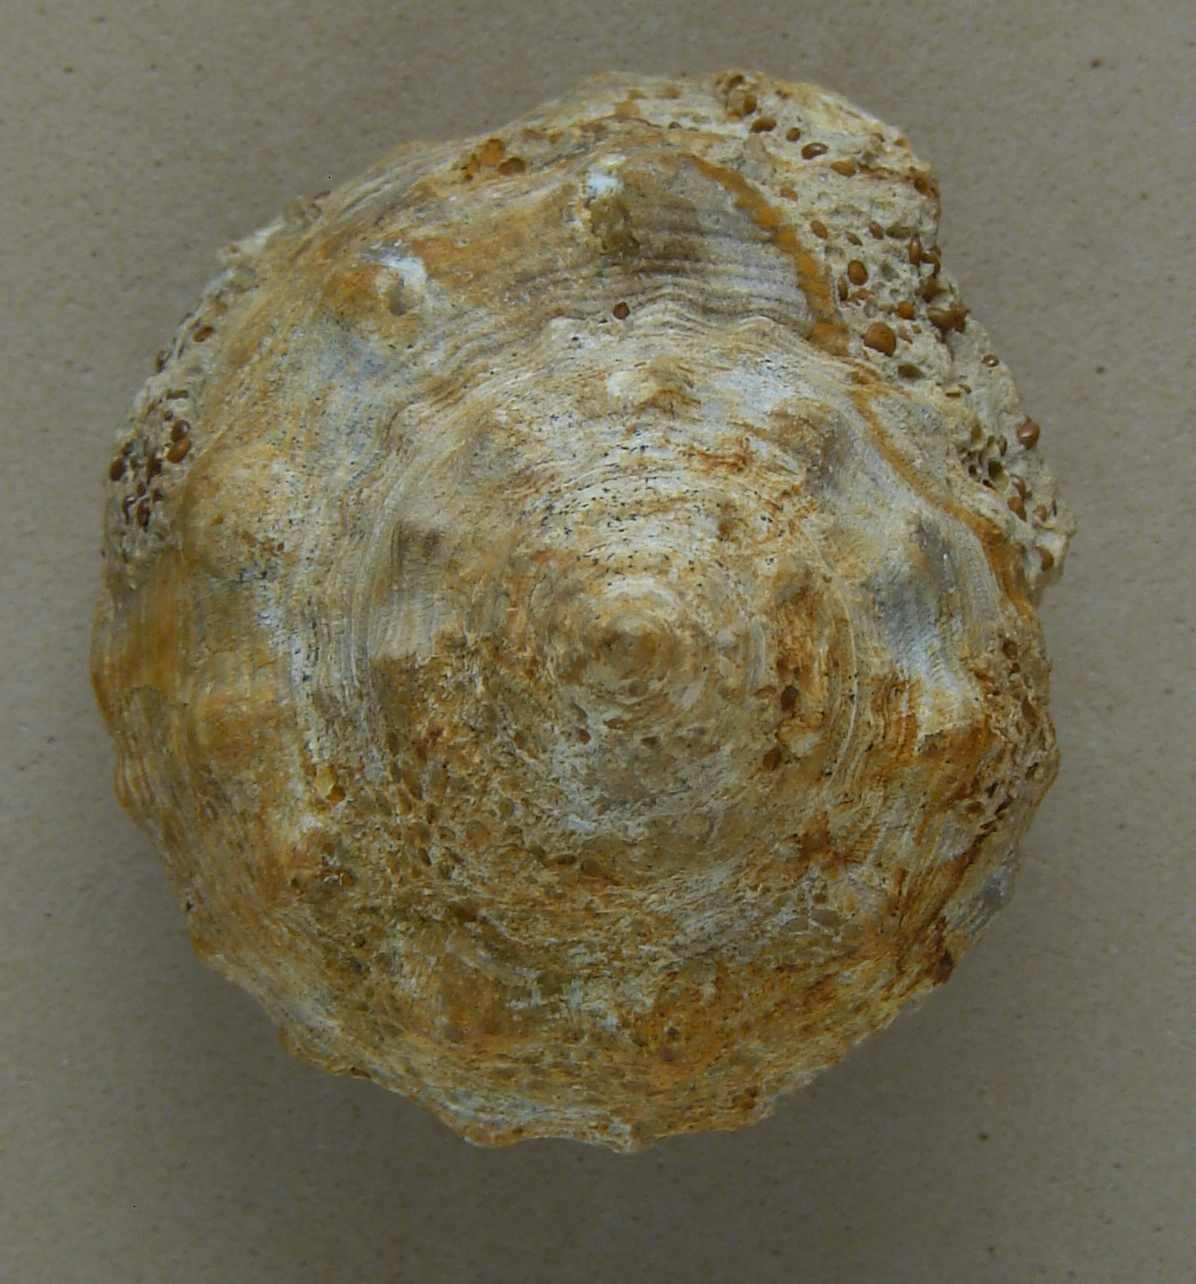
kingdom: Animalia
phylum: Mollusca
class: Gastropoda
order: Pleurotomariida
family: Pleurotomariidae
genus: Pleurotomaria
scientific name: Pleurotomaria armata
